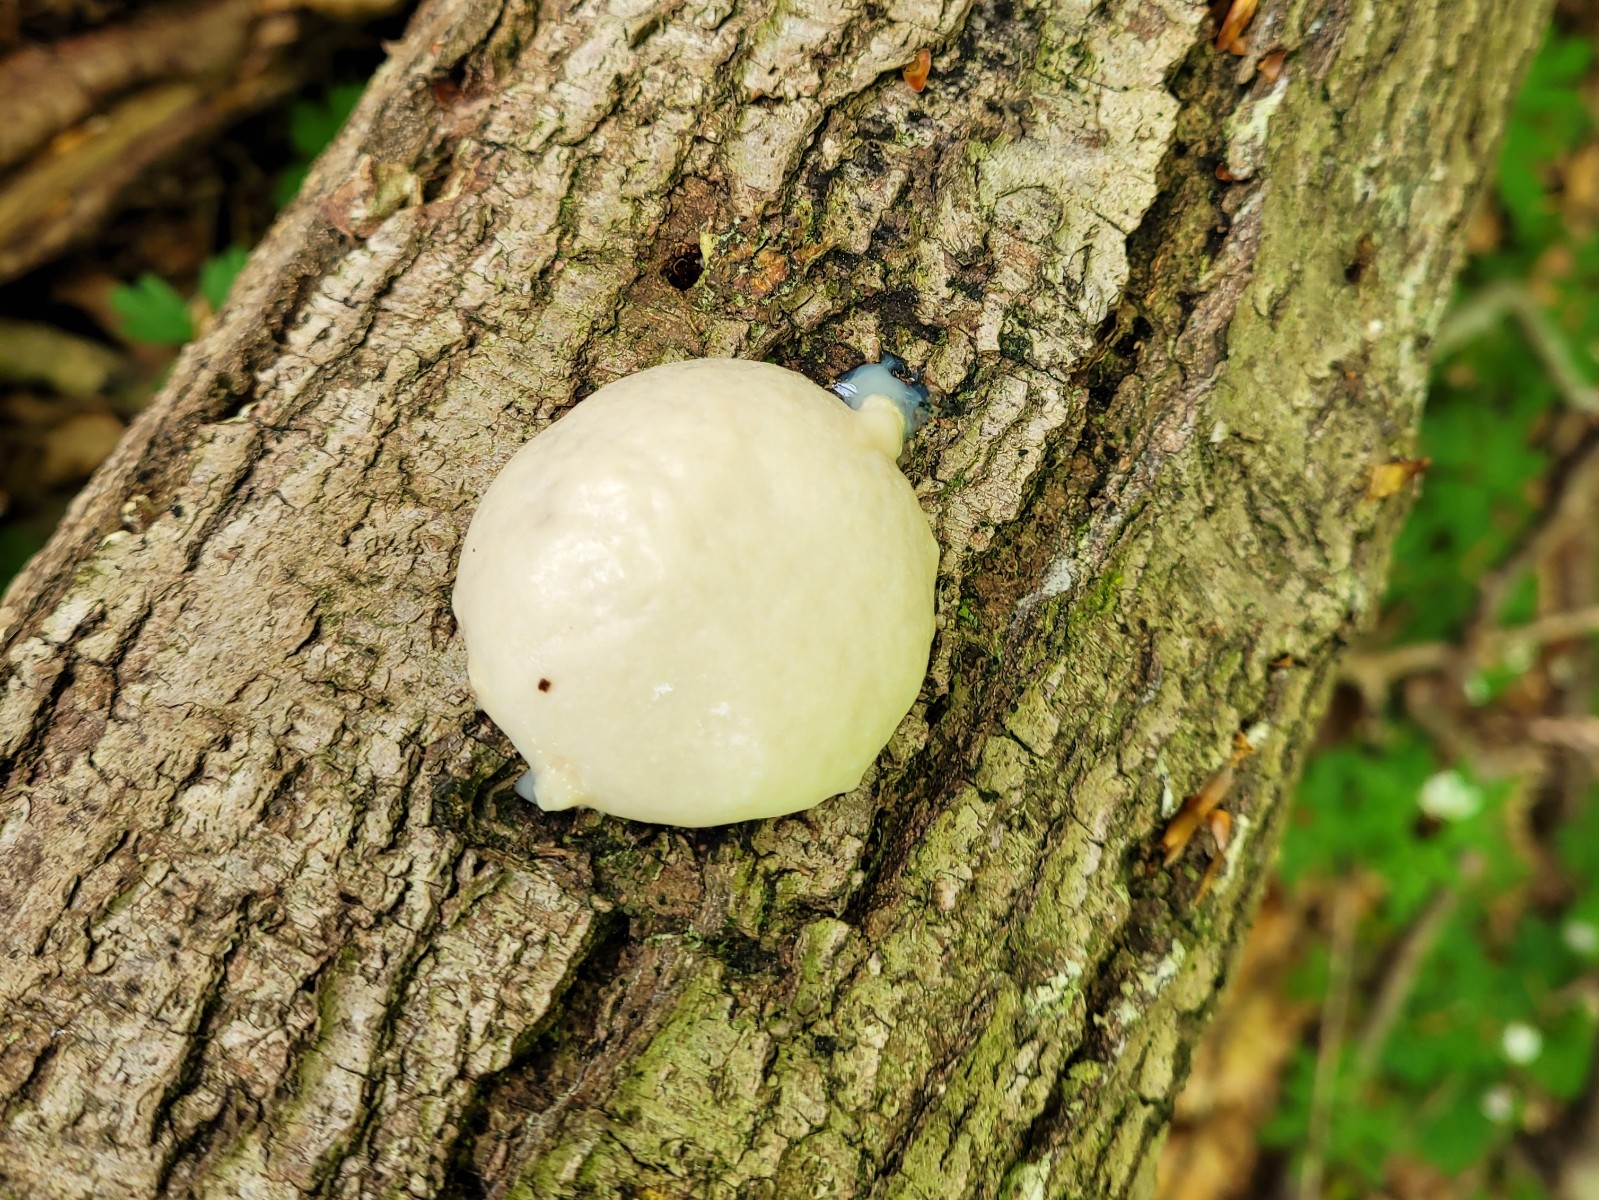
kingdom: Protozoa
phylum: Mycetozoa
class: Myxomycetes
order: Cribrariales
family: Tubiferaceae
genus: Reticularia
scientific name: Reticularia lycoperdon
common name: skinnende støvpude
